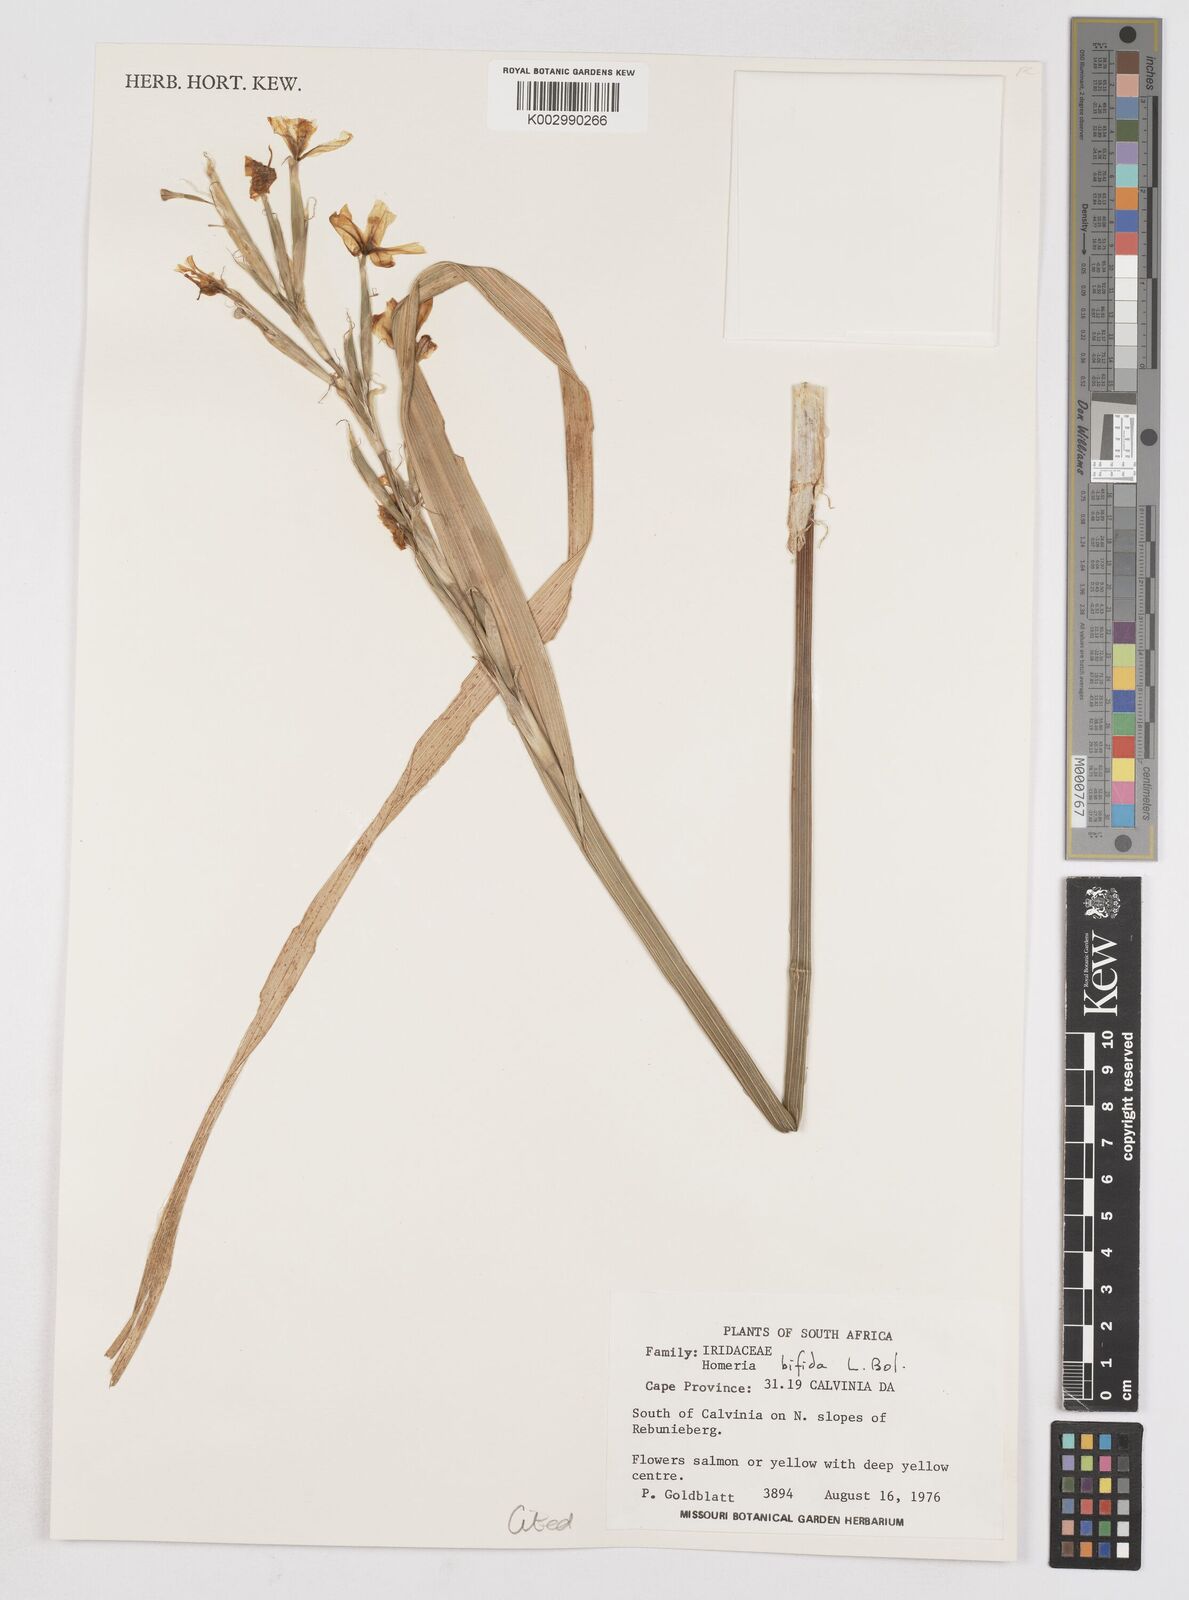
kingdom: Plantae
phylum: Tracheophyta
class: Liliopsida
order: Asparagales
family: Iridaceae
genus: Moraea
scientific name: Moraea bifida
